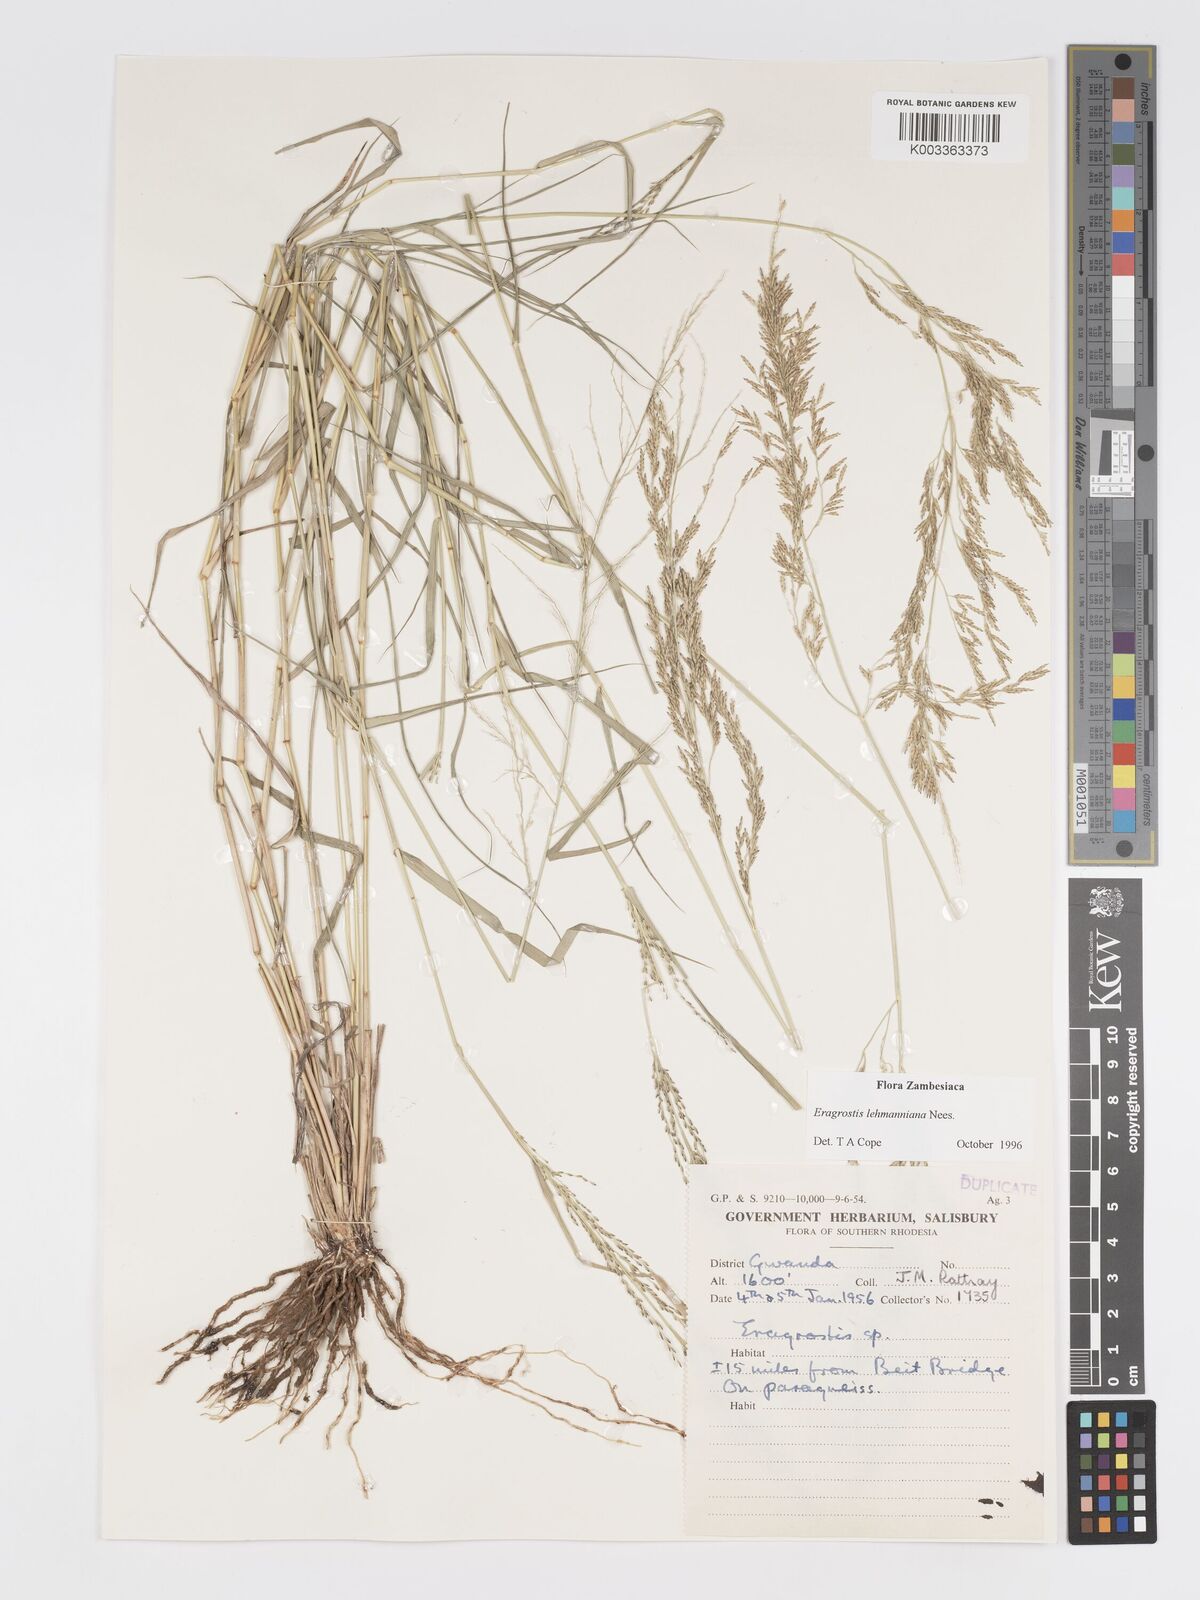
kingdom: Plantae
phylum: Tracheophyta
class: Liliopsida
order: Poales
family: Poaceae
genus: Eragrostis
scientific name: Eragrostis lehmanniana
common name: Lehmann lovegrass
